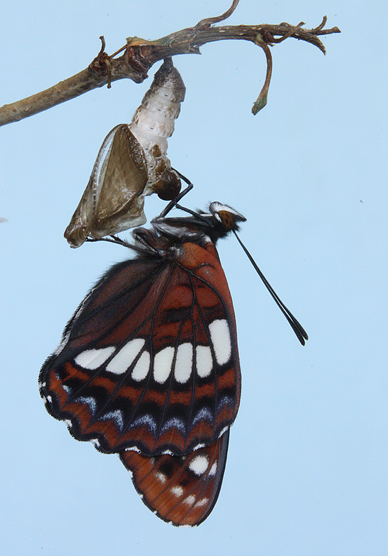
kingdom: Animalia
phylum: Arthropoda
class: Insecta
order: Lepidoptera
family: Nymphalidae
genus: Limenitis
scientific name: Limenitis lorquini
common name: Lorquin's Admiral
